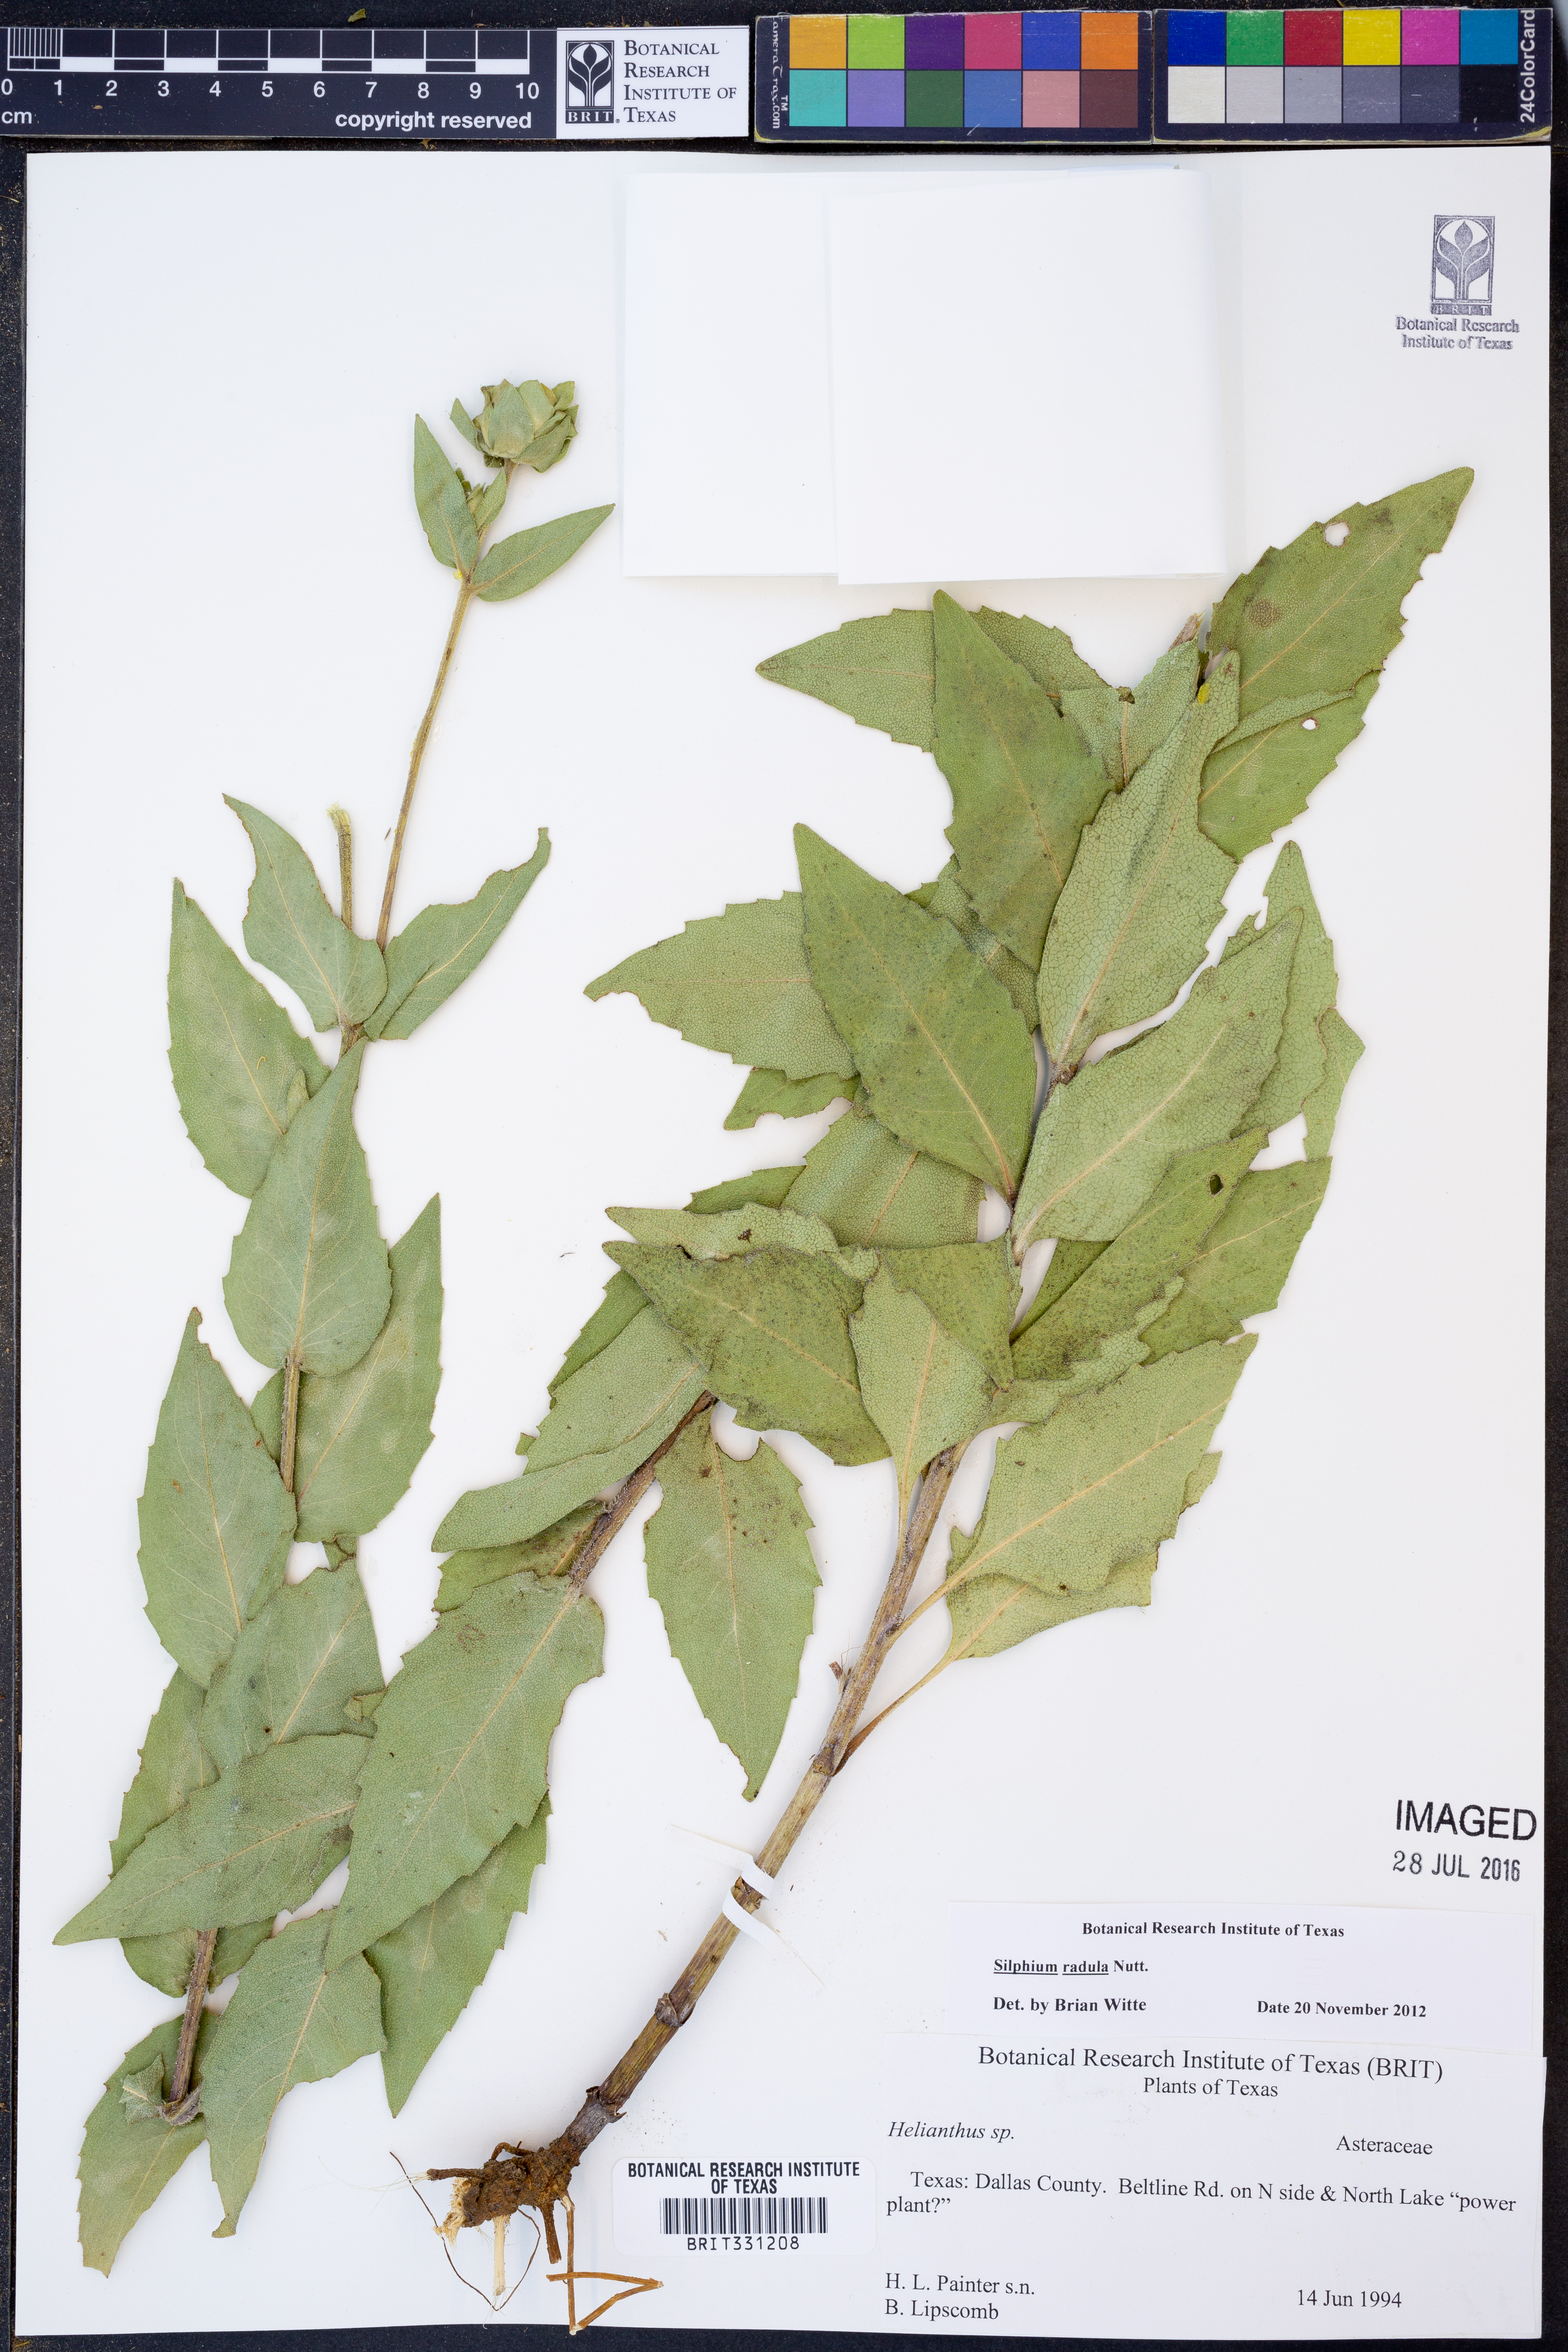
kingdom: Plantae
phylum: Tracheophyta
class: Magnoliopsida
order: Asterales
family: Asteraceae
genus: Silphium
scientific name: Silphium radula
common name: Roughleaf rosinweed
